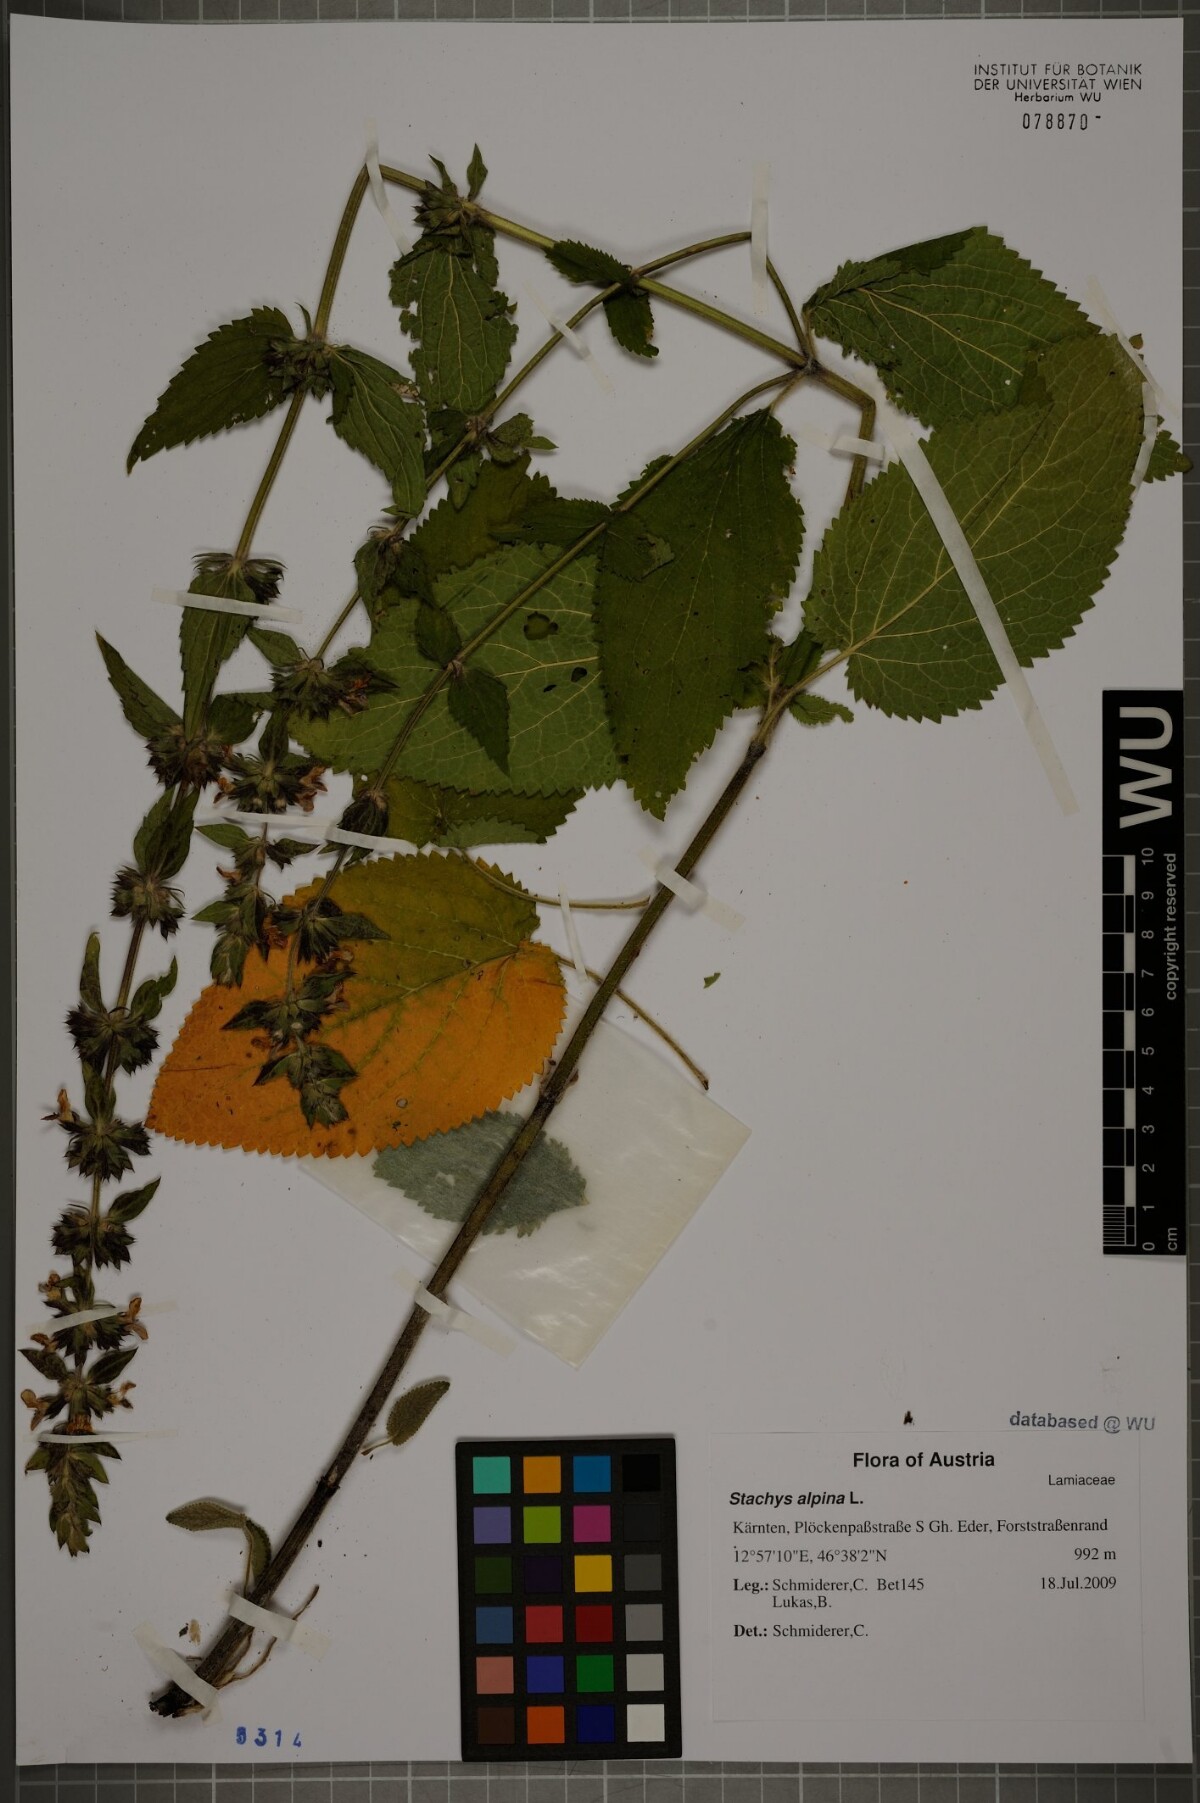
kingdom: Plantae
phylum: Tracheophyta
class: Magnoliopsida
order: Lamiales
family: Lamiaceae
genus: Stachys
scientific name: Stachys alpina
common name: Limestone woundwort
